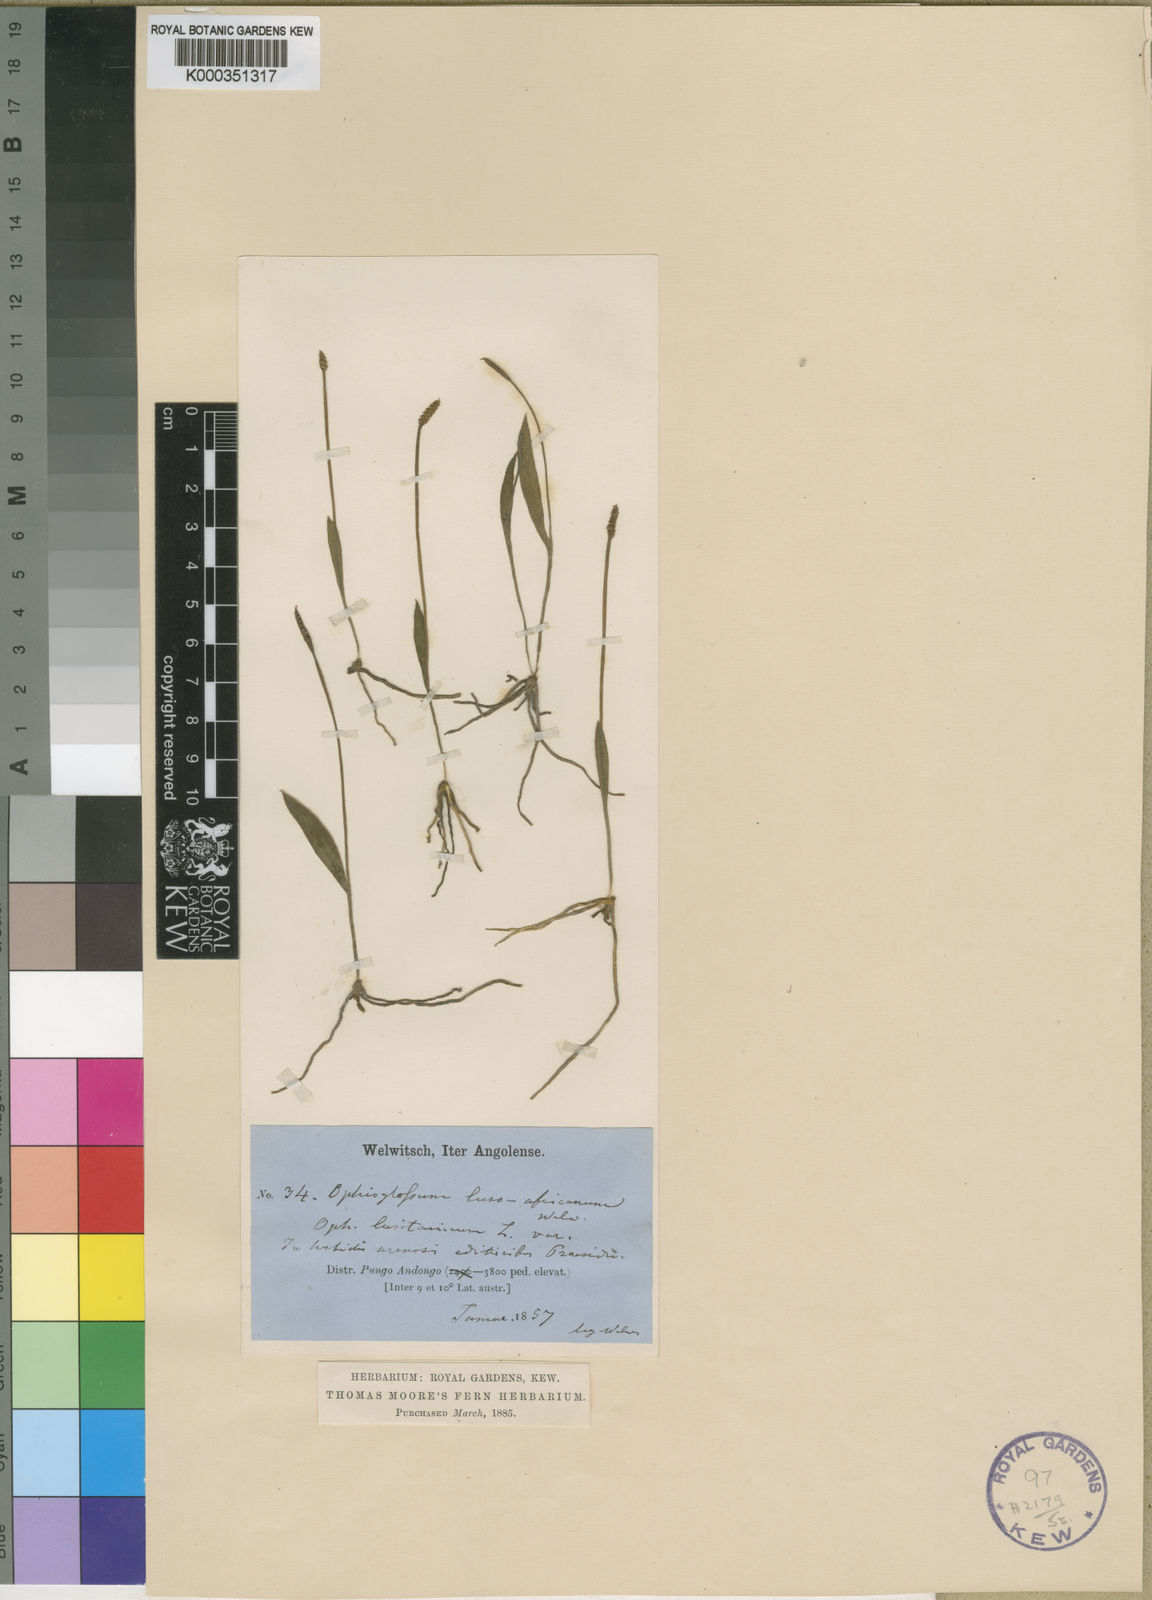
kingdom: Plantae
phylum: Tracheophyta
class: Polypodiopsida
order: Ophioglossales
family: Ophioglossaceae
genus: Ophioglossum
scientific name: Ophioglossum lusoafricanum
